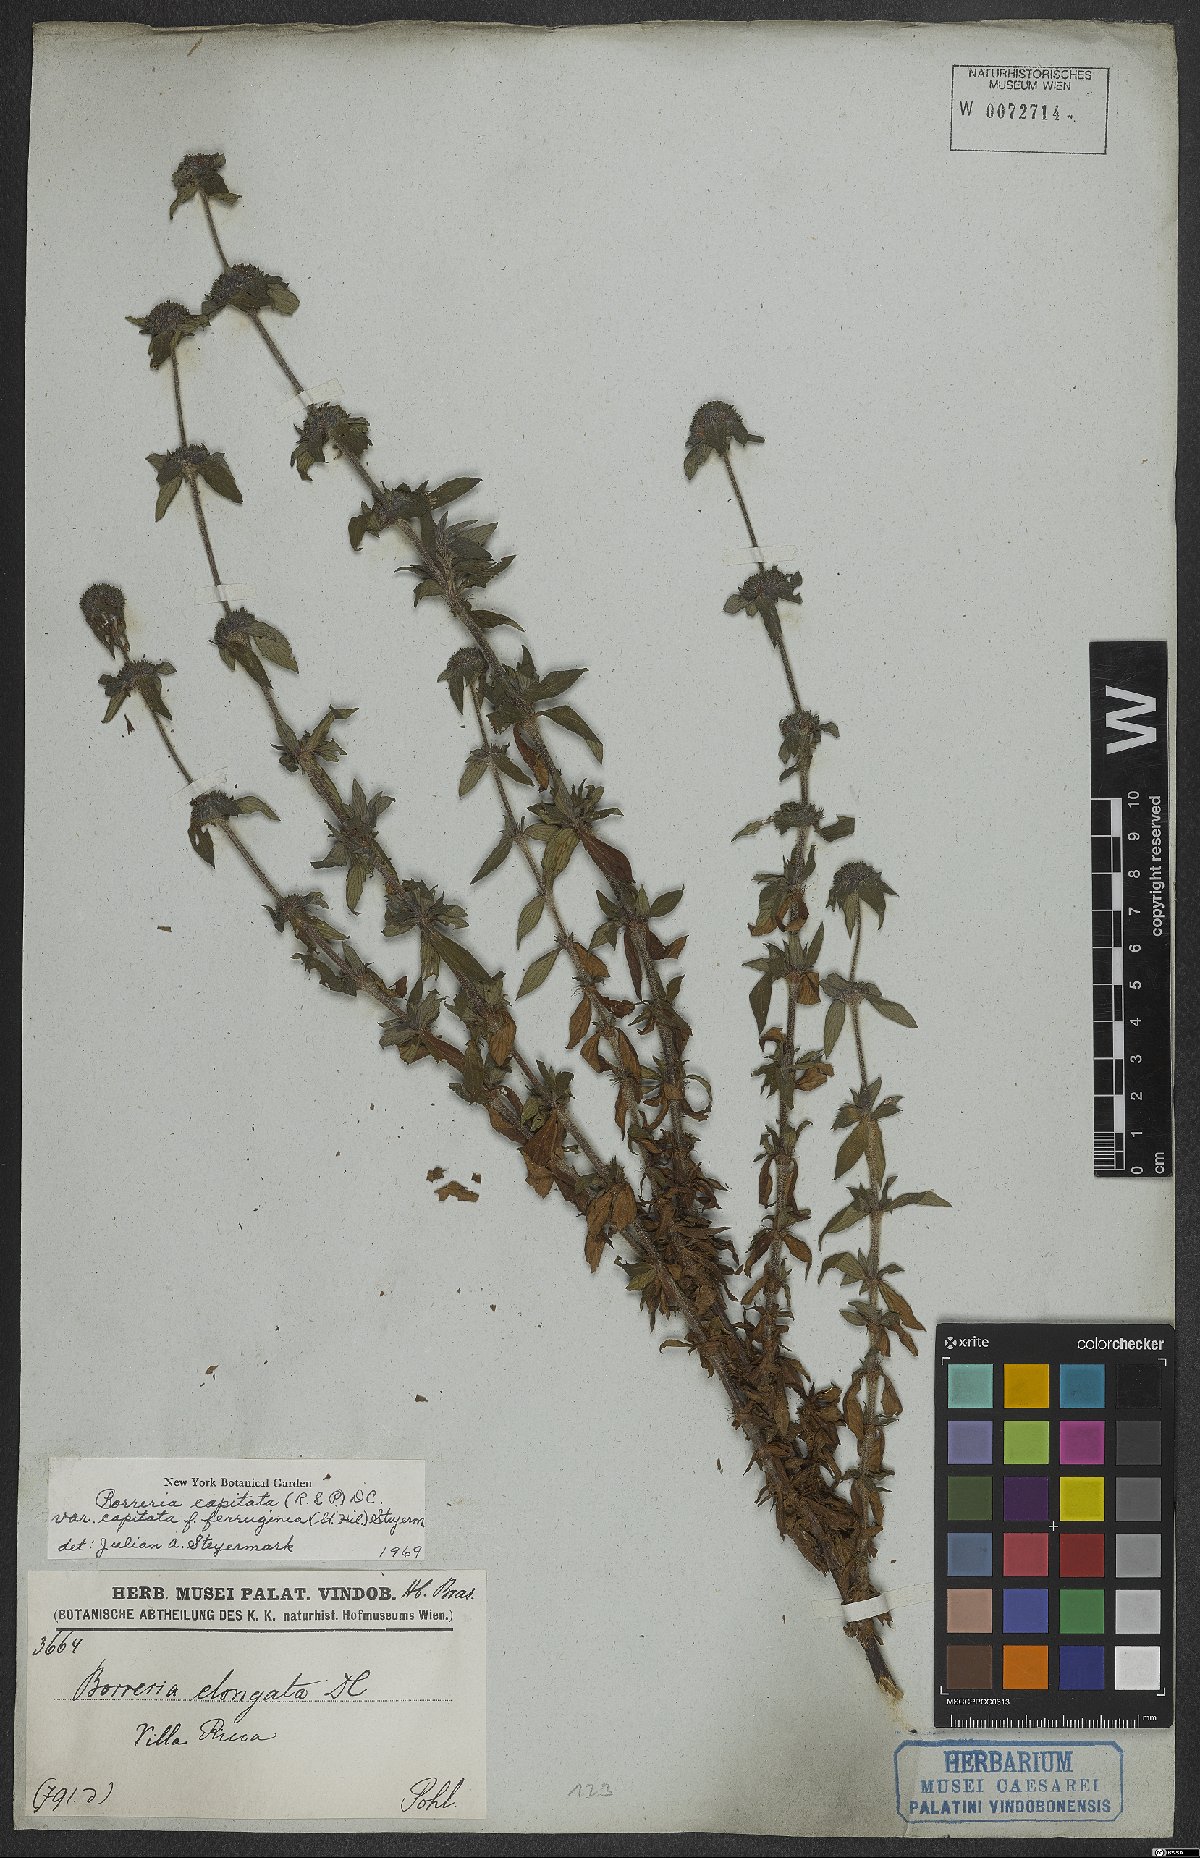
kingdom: Plantae
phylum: Tracheophyta
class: Magnoliopsida
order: Gentianales
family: Rubiaceae
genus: Spermacoce
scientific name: Spermacoce capitata
